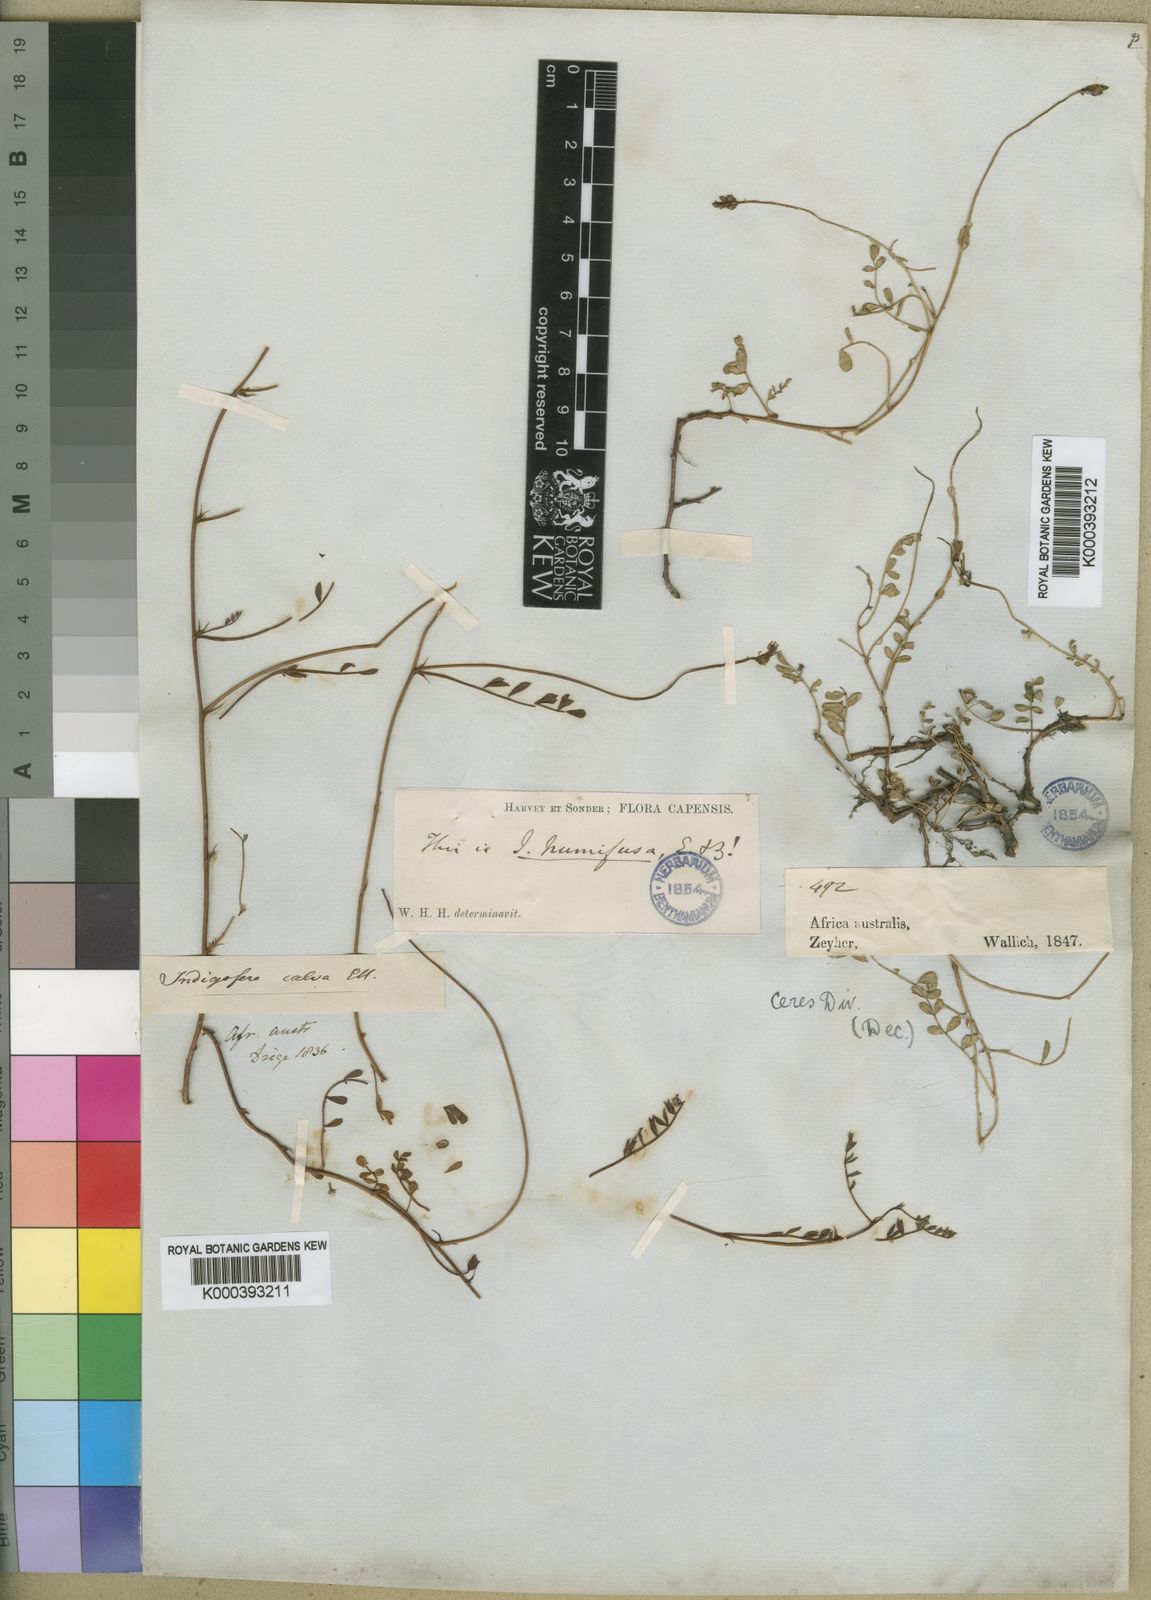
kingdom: Plantae
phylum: Tracheophyta
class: Magnoliopsida
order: Fabales
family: Fabaceae
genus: Indigofera
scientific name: Indigofera humifusa
